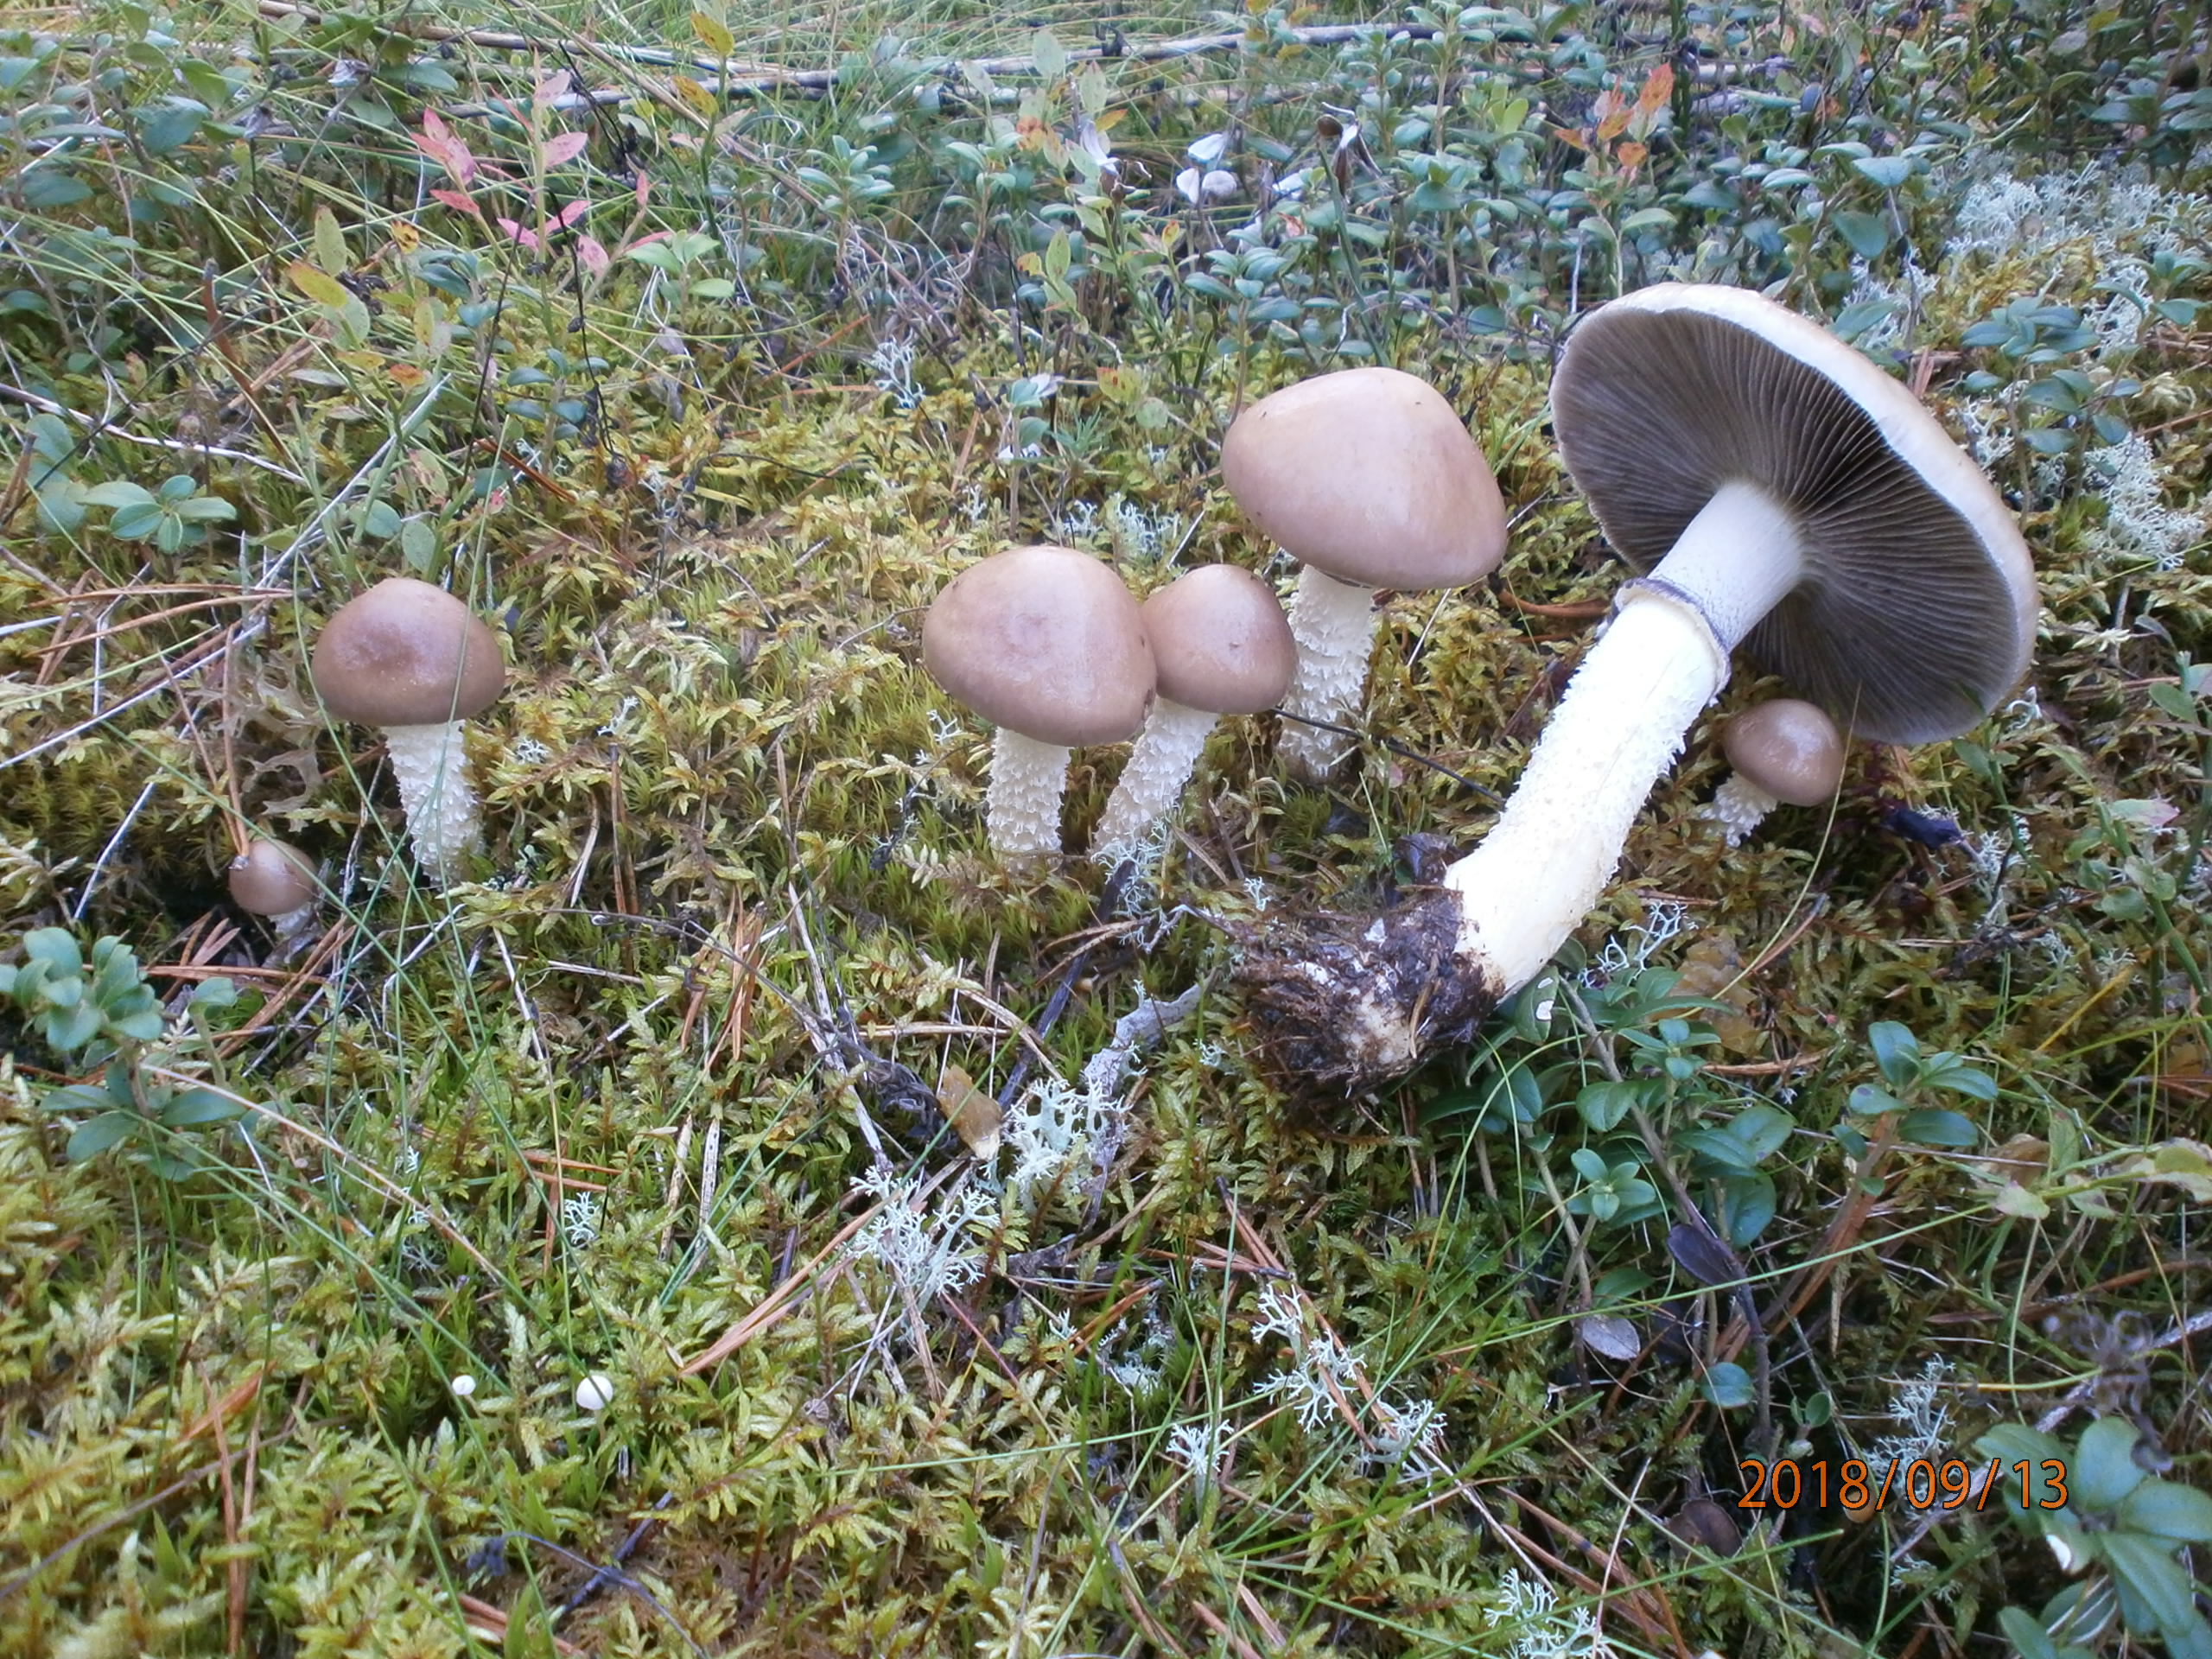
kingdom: Fungi
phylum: Basidiomycota
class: Agaricomycetes
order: Agaricales
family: Strophariaceae
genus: Stropharia
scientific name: Stropharia hornemannii
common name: Conifer roundhead
